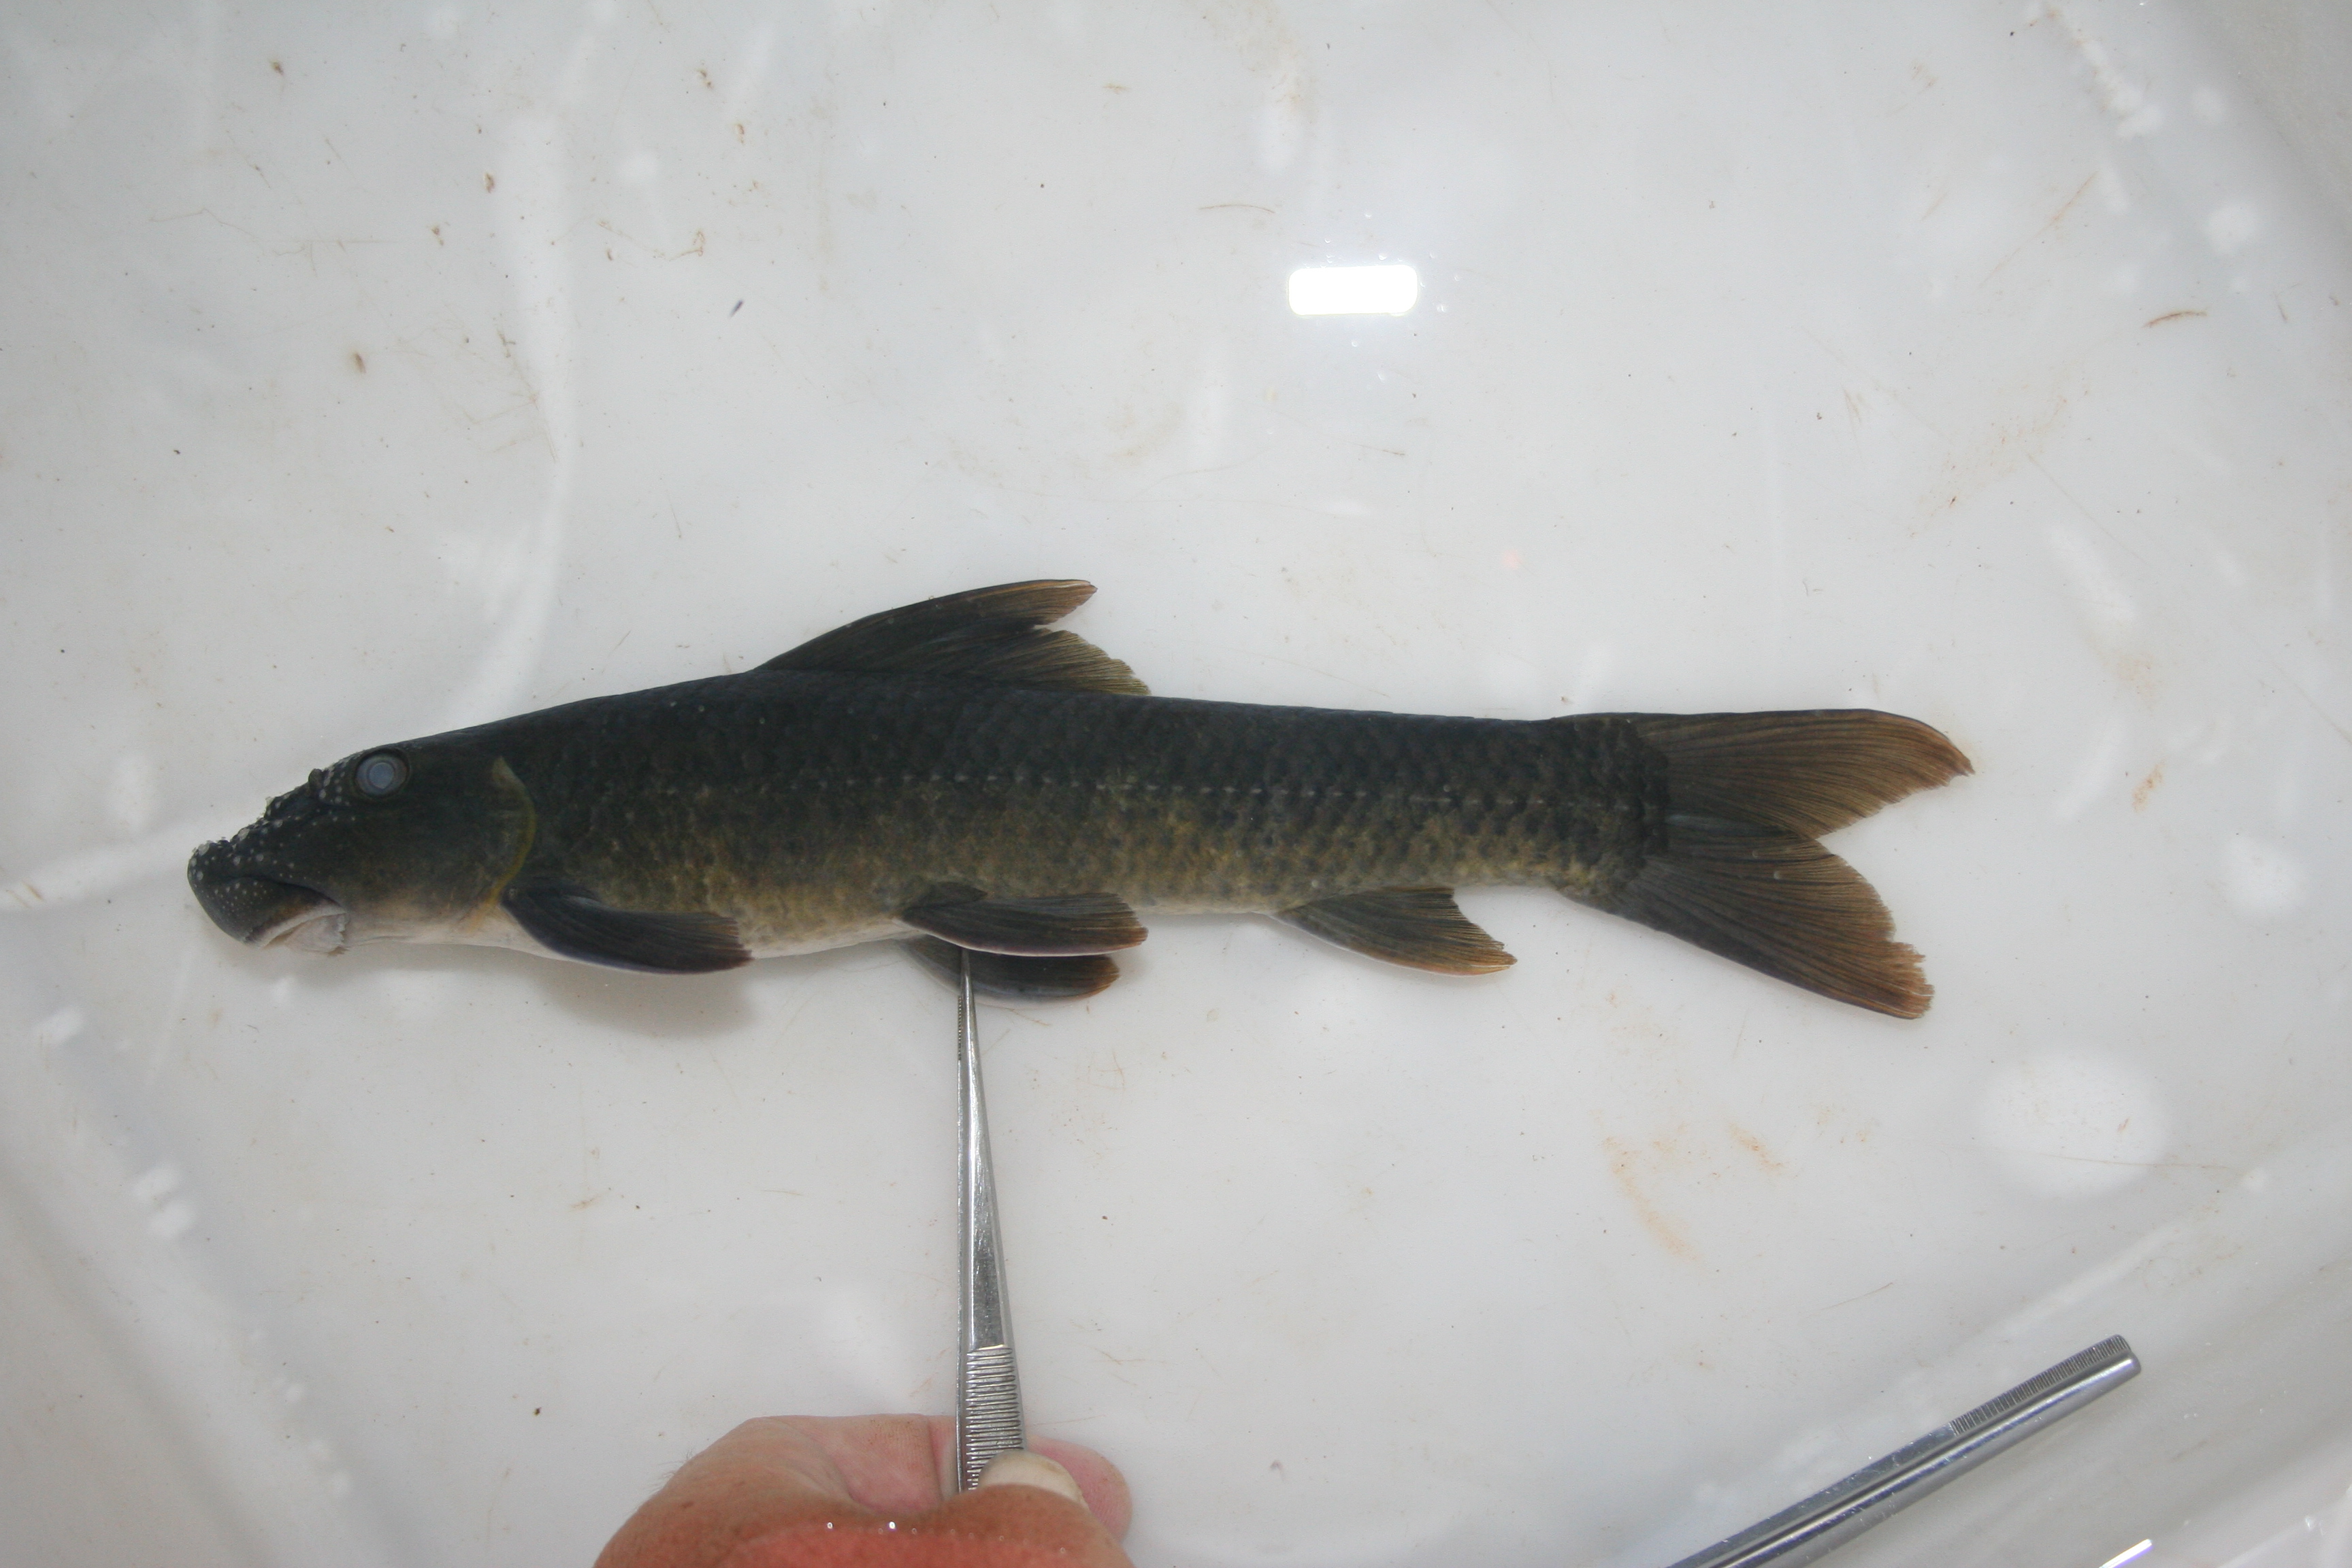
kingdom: Animalia
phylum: Chordata
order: Cypriniformes
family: Cyprinidae
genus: Labeo
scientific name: Labeo
